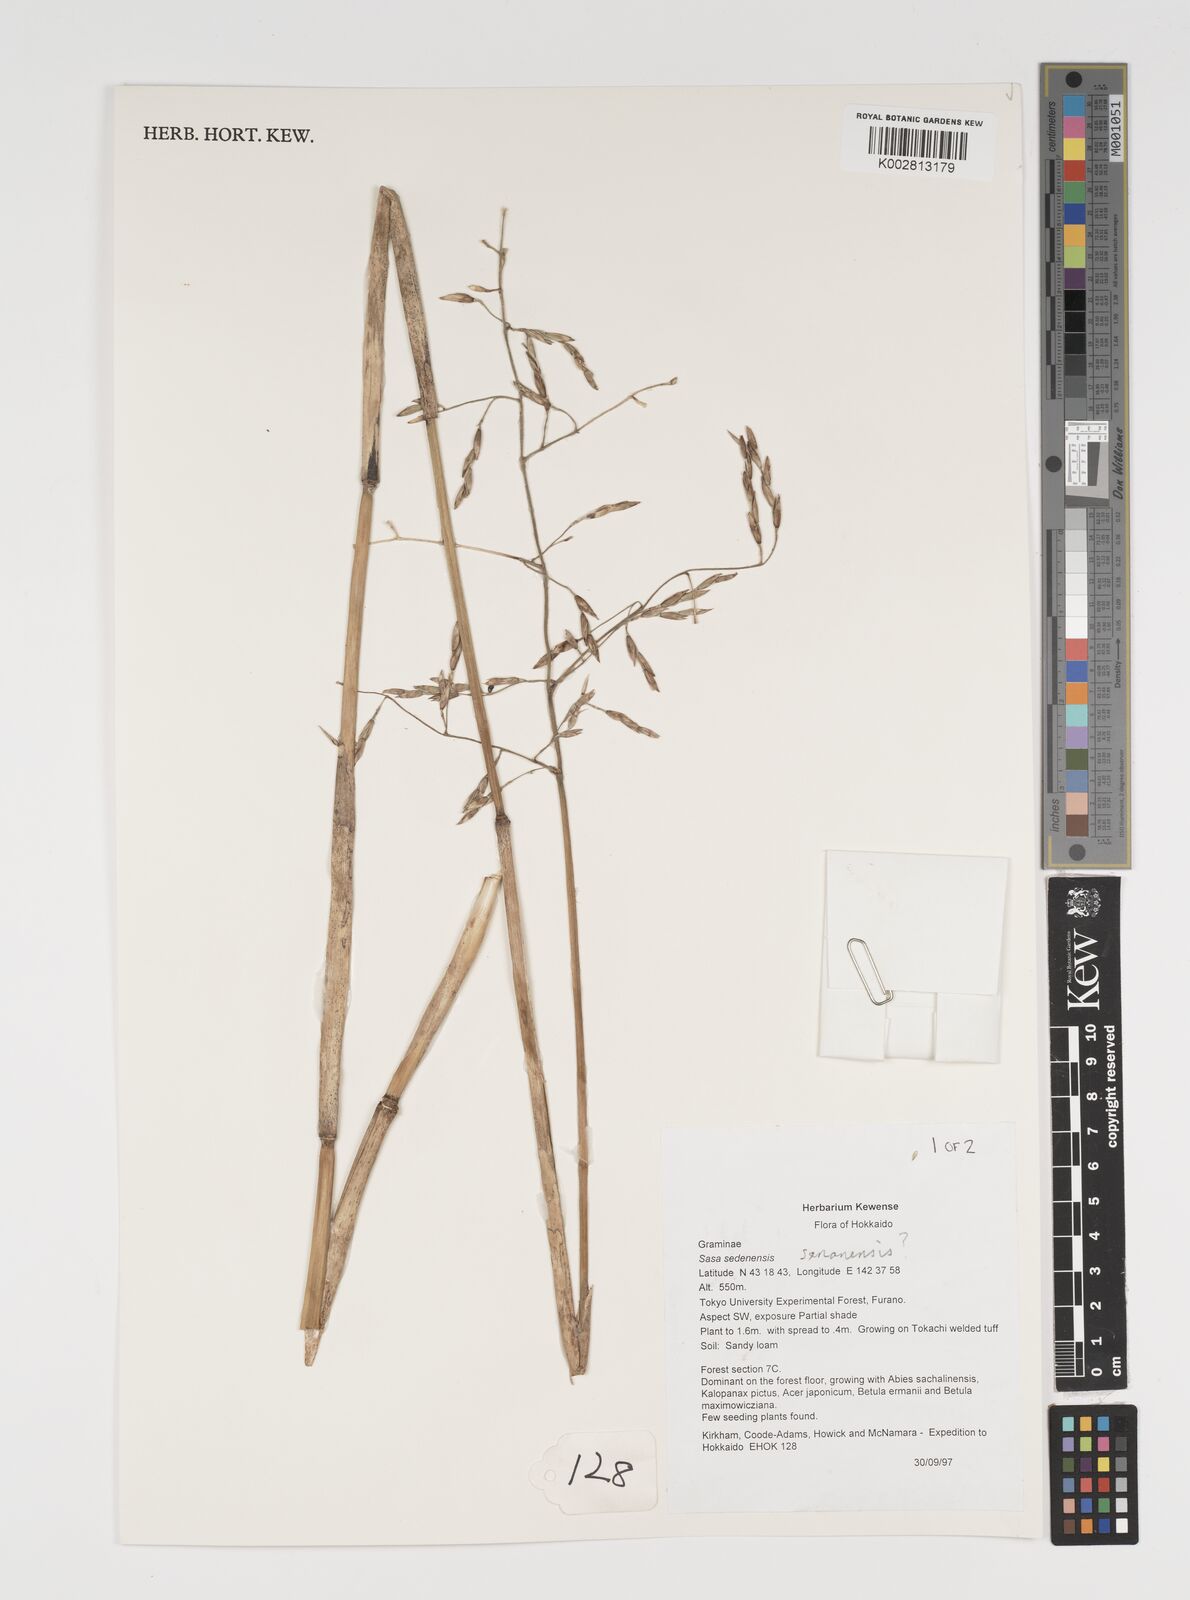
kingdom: Plantae
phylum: Tracheophyta
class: Liliopsida
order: Poales
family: Poaceae
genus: Sasa
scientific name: Sasa senanensis
